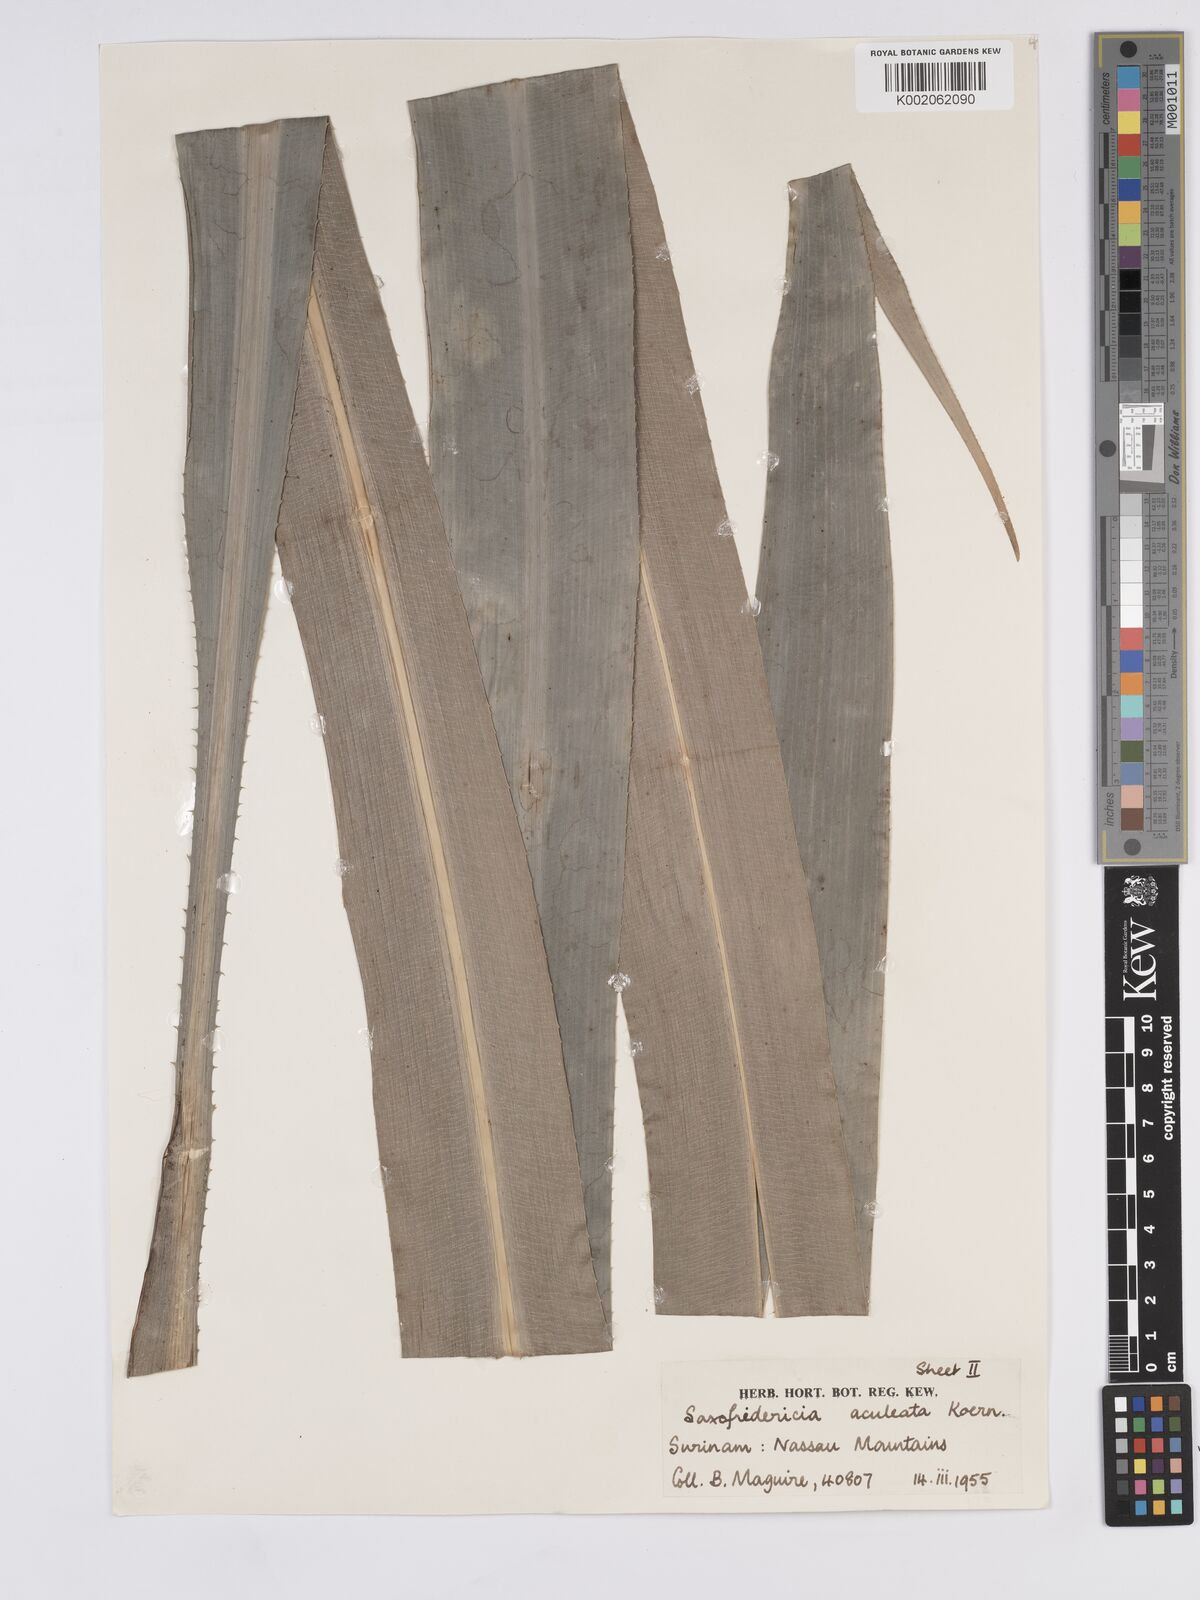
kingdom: Plantae
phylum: Tracheophyta
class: Liliopsida
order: Poales
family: Rapateaceae
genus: Saxofridericia
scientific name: Saxofridericia aculeata
